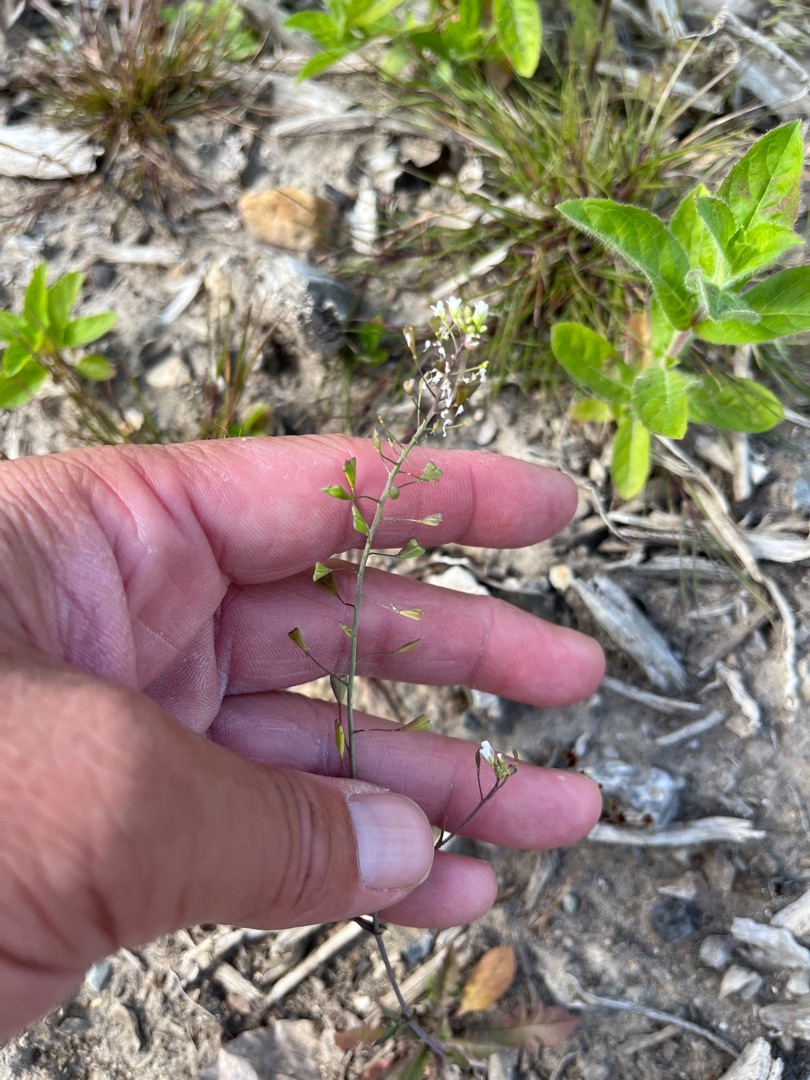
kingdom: Plantae
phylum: Tracheophyta
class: Magnoliopsida
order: Brassicales
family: Brassicaceae
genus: Capsella
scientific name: Capsella bursa-pastoris
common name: Hyrdetaske
